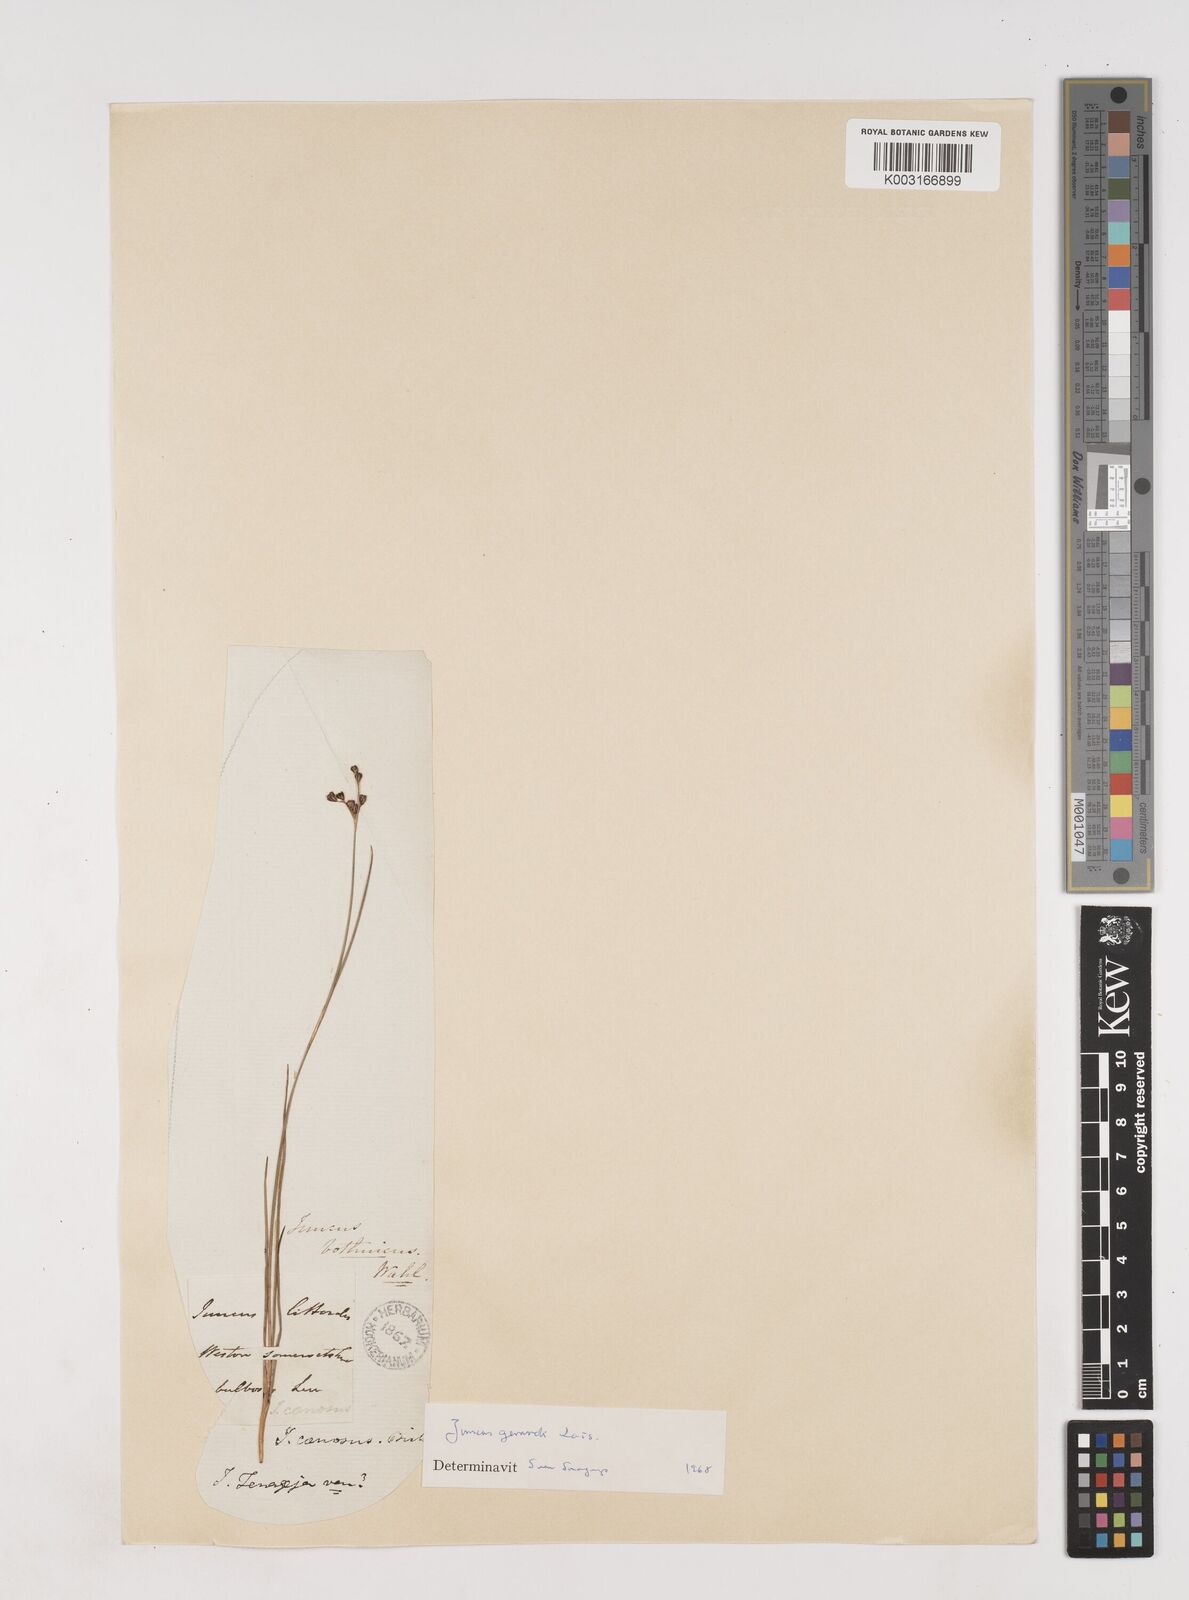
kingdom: Plantae
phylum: Tracheophyta
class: Liliopsida
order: Poales
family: Juncaceae
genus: Juncus
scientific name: Juncus gerardi
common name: Saltmarsh rush
